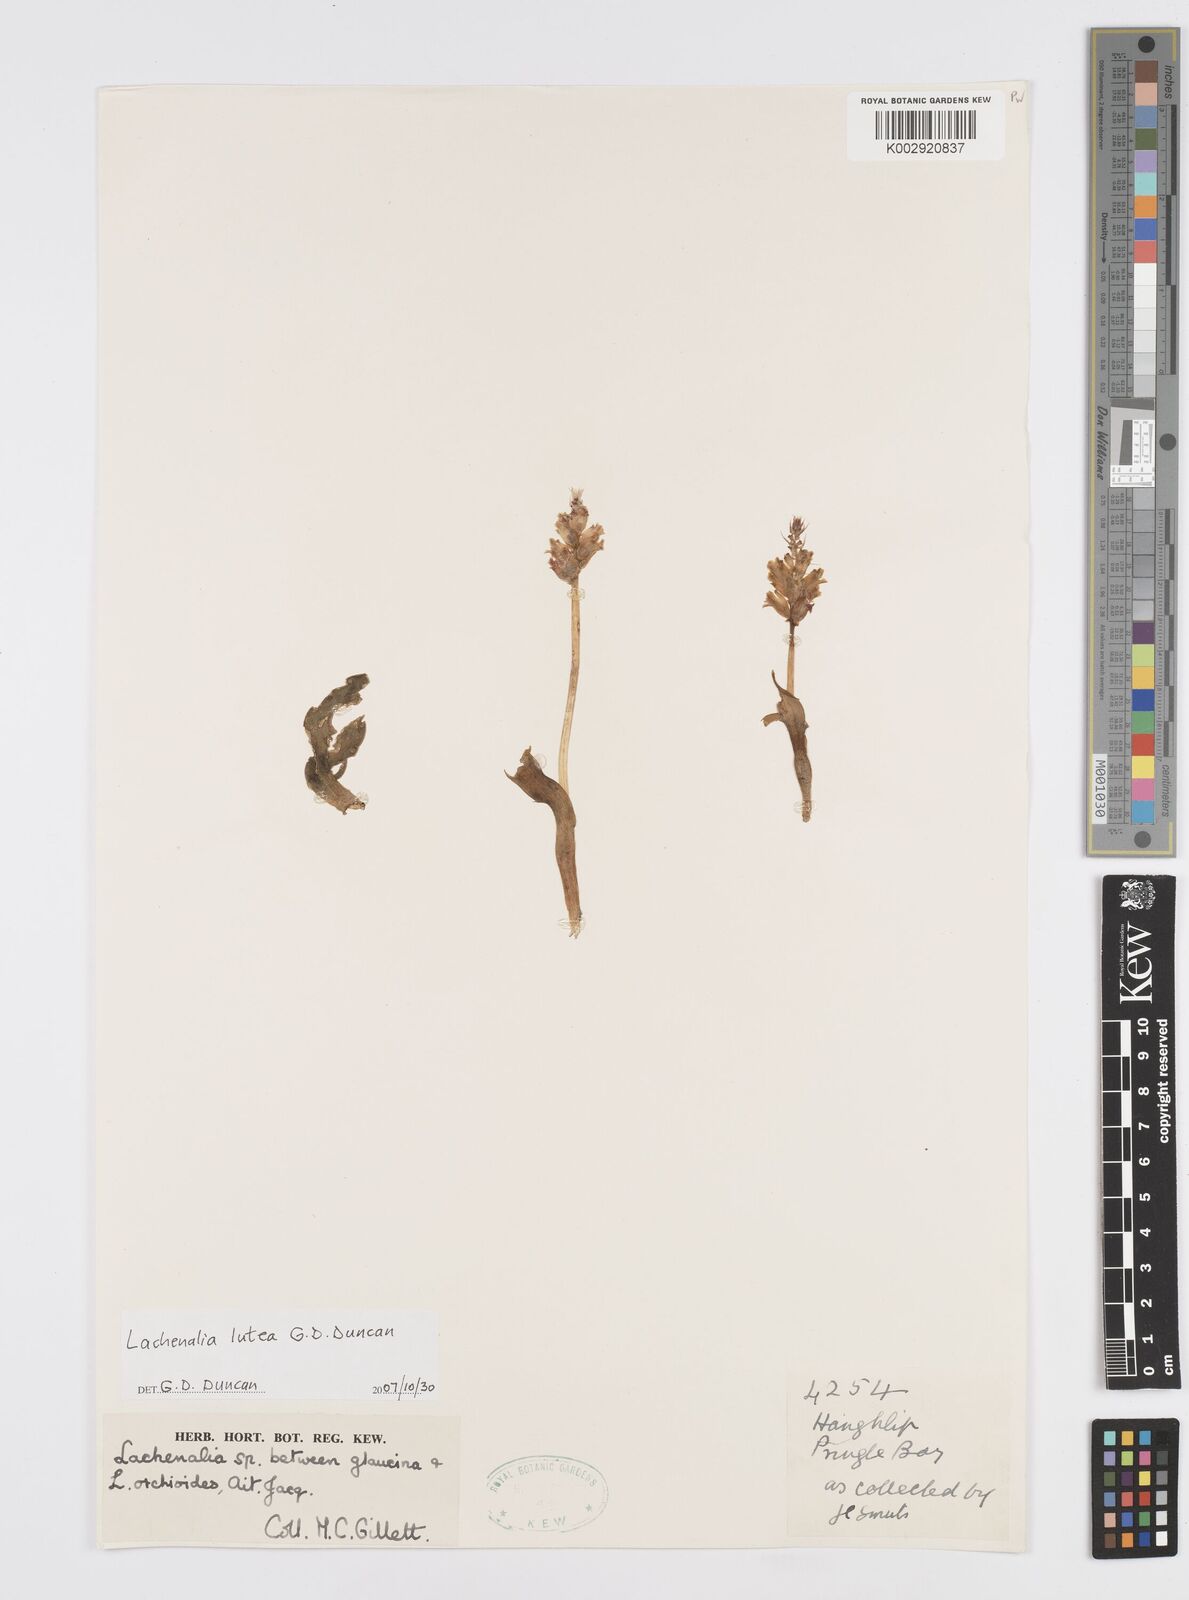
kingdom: Plantae
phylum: Tracheophyta
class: Liliopsida
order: Asparagales
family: Asparagaceae
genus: Lachenalia
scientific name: Lachenalia lutea
